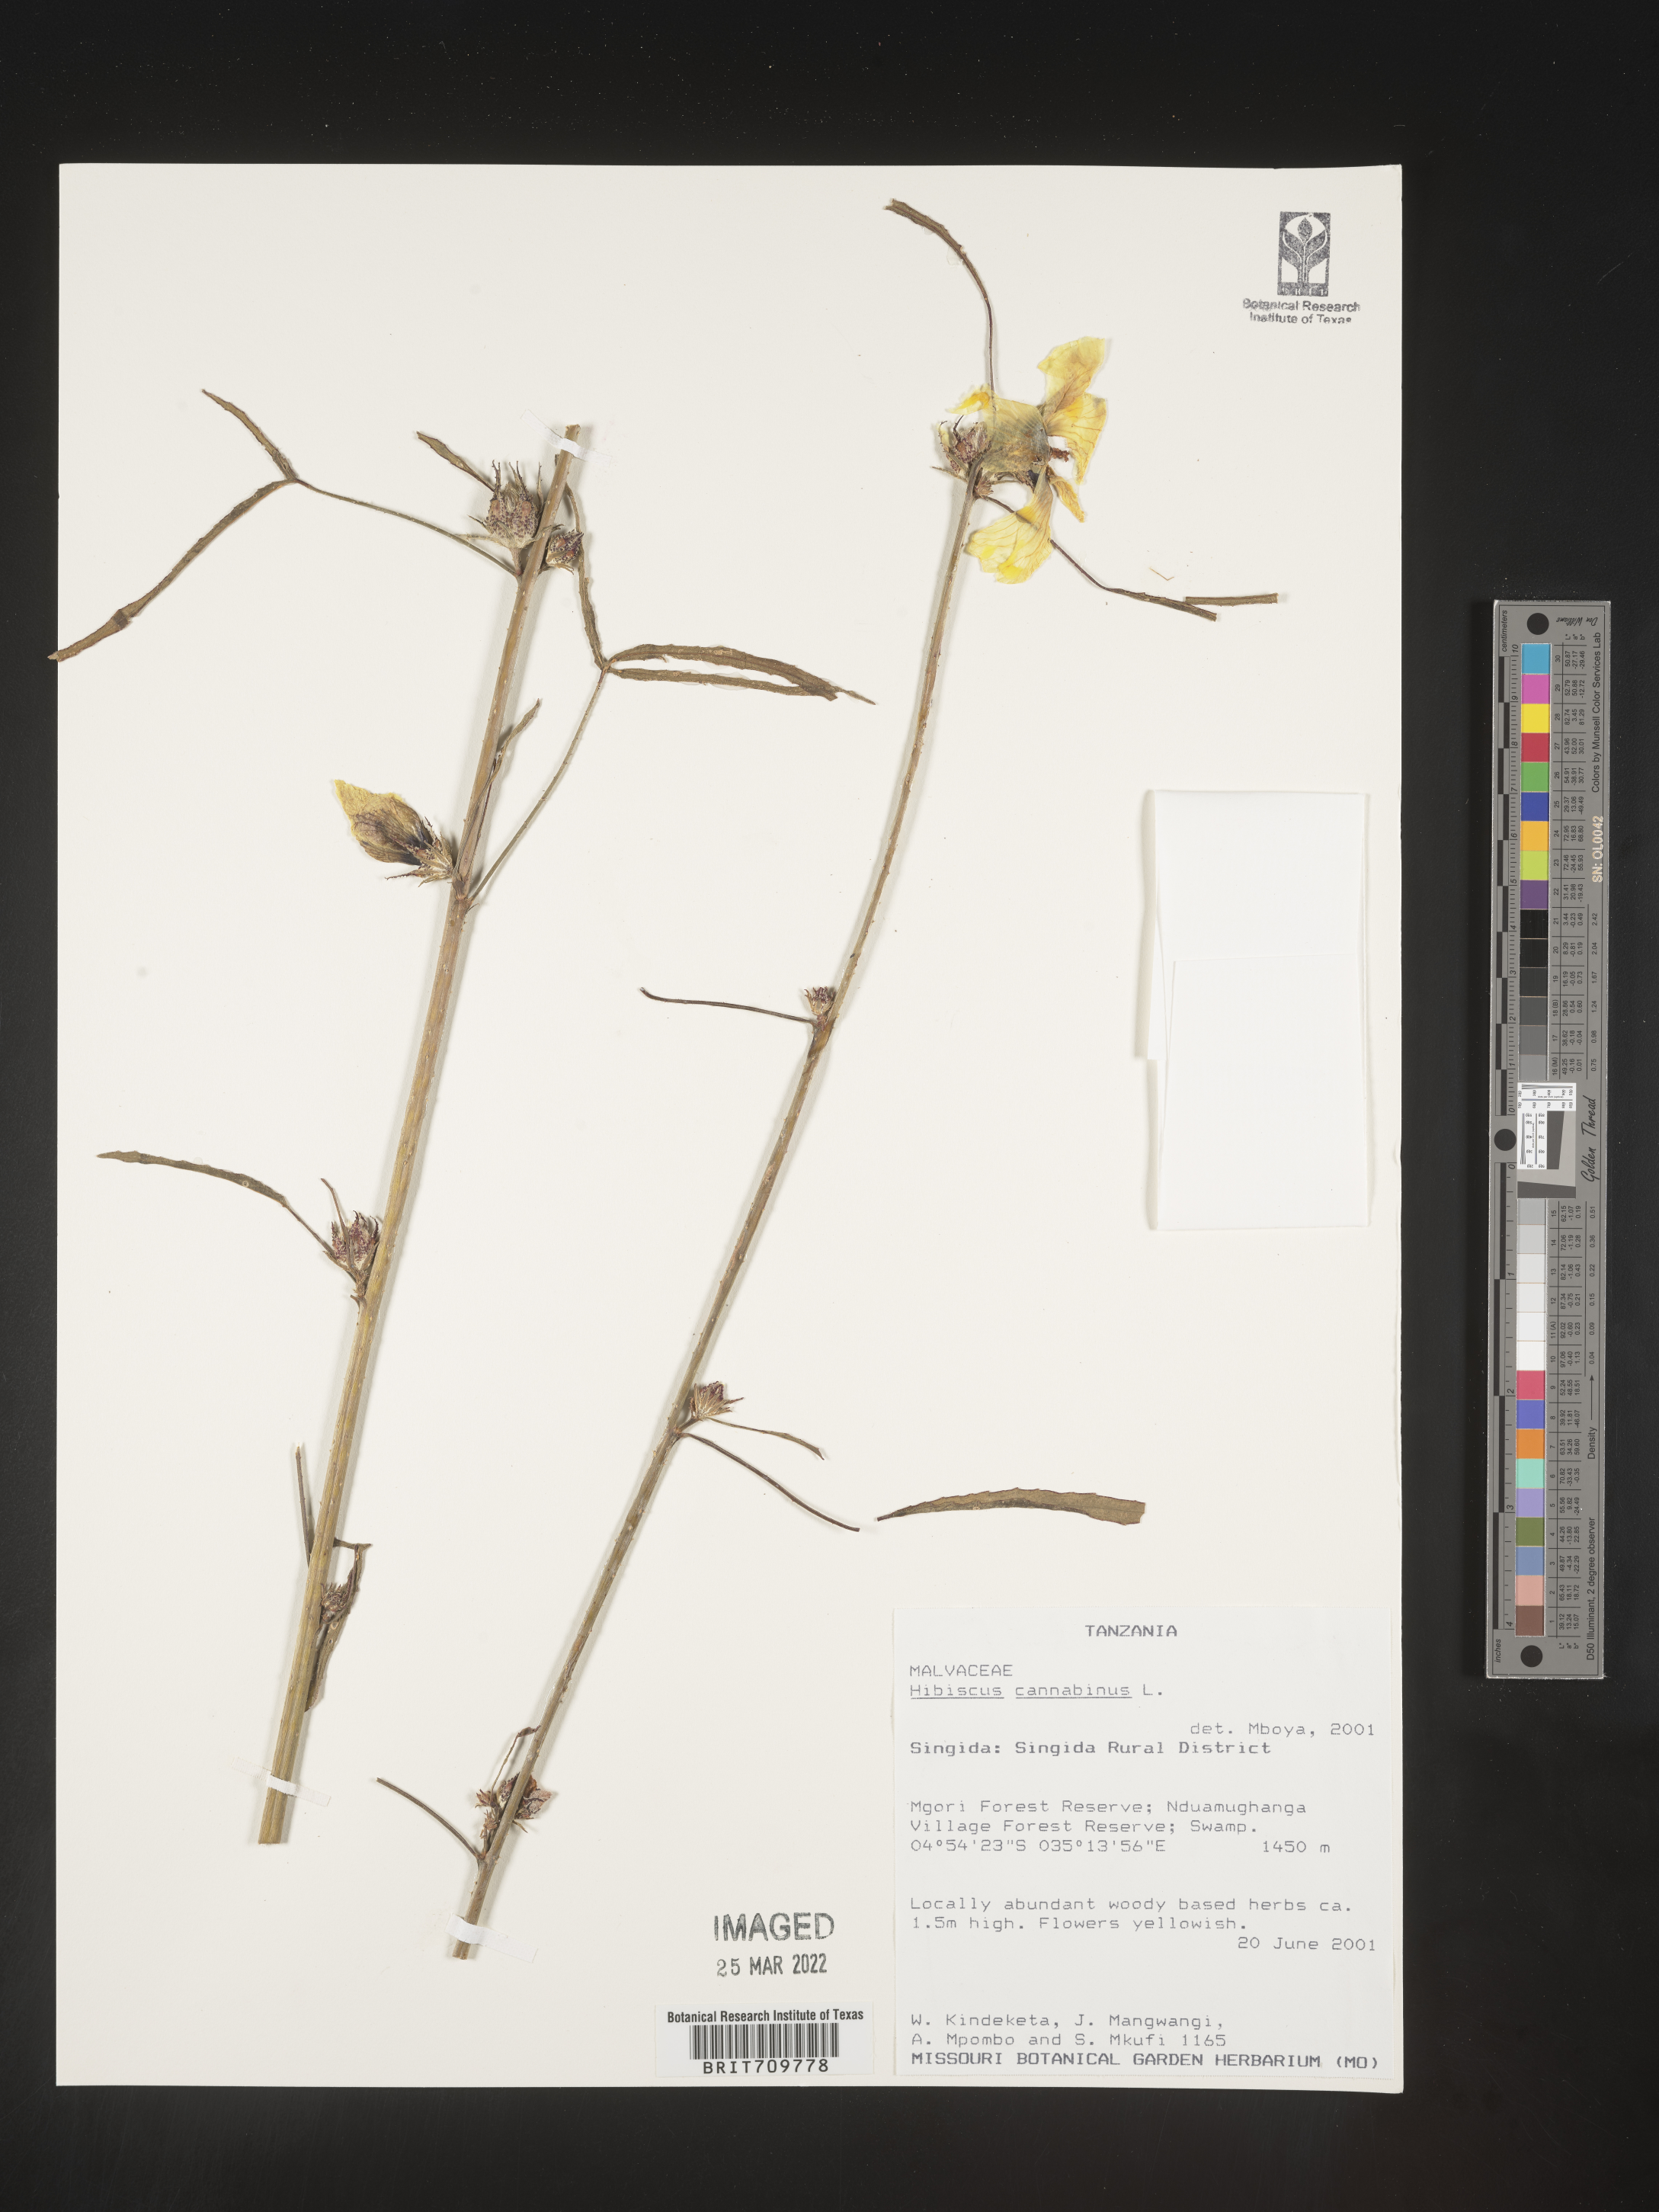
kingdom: Plantae
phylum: Tracheophyta
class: Magnoliopsida
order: Malvales
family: Malvaceae
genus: Hibiscus
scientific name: Hibiscus
